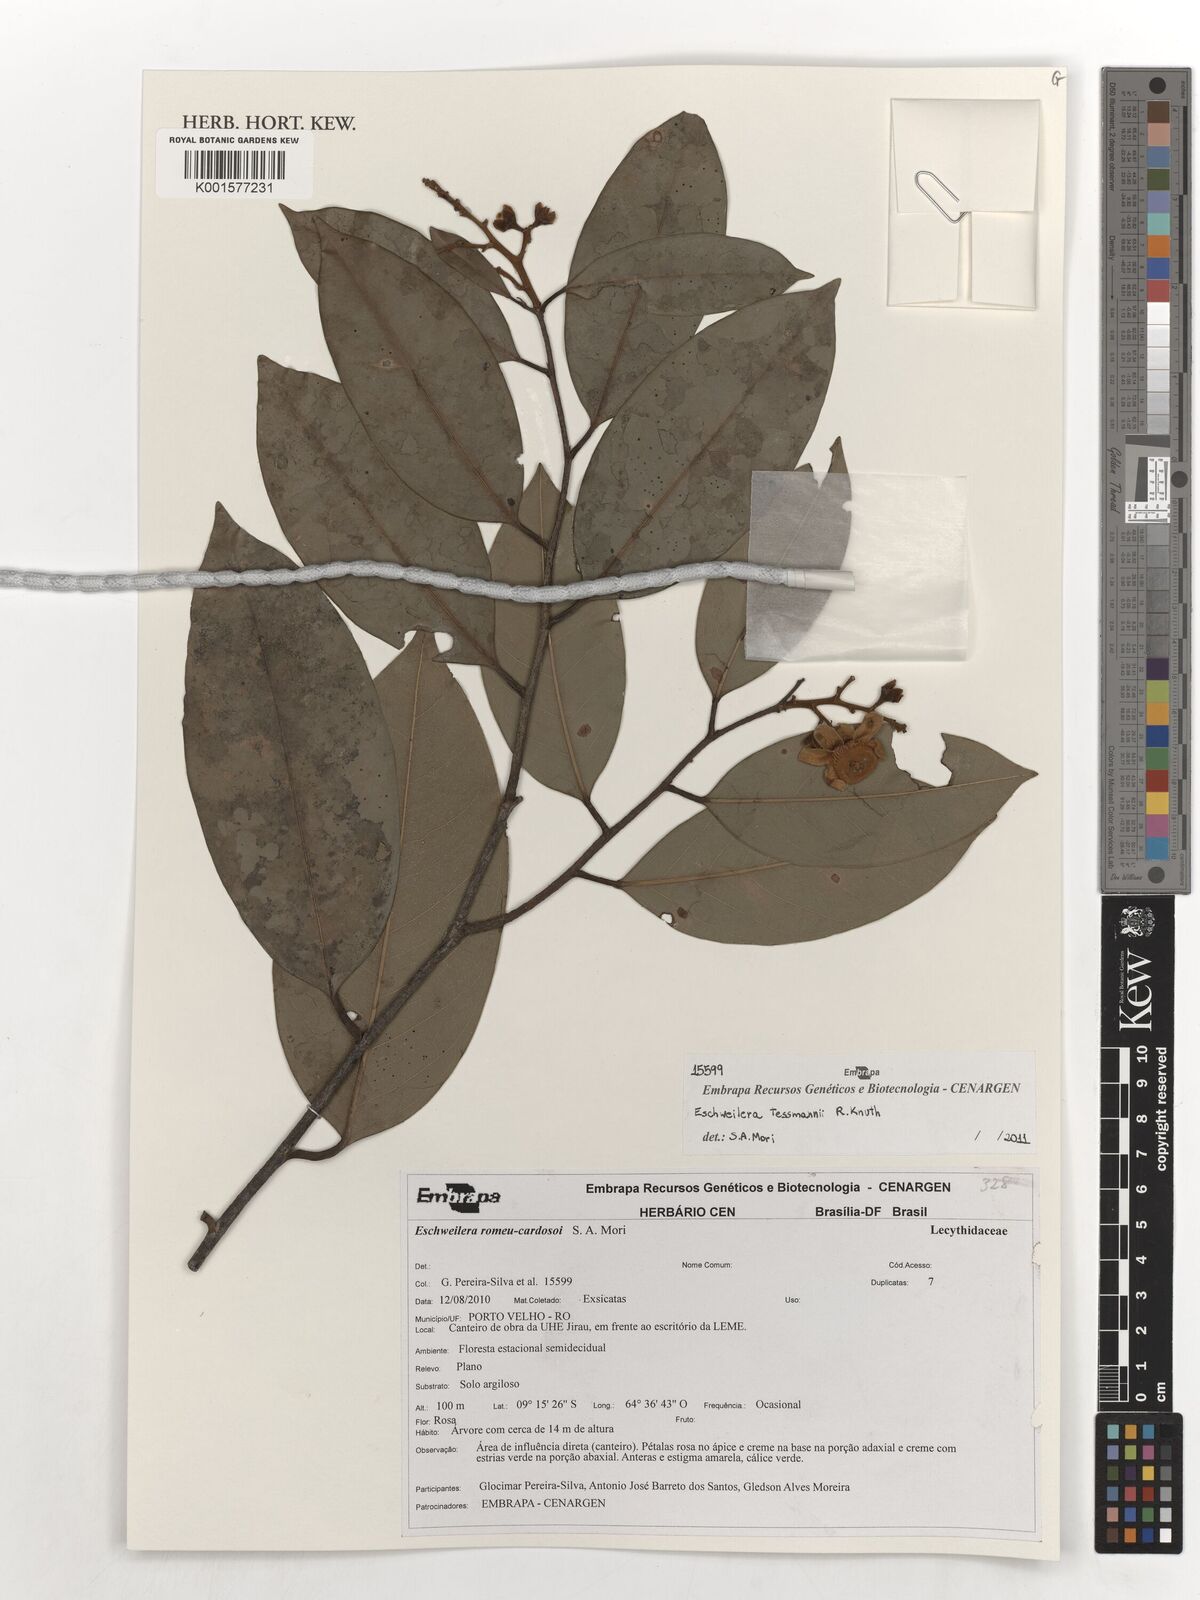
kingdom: Plantae
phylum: Tracheophyta
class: Magnoliopsida
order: Ericales
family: Lecythidaceae
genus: Eschweilera
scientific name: Eschweilera tessmannii
